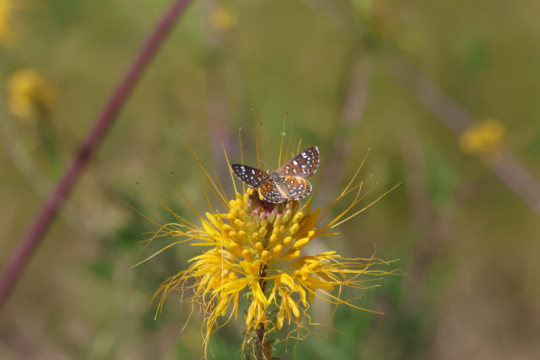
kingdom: Animalia
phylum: Arthropoda
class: Insecta
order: Lepidoptera
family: Riodinidae
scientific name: Riodinidae
